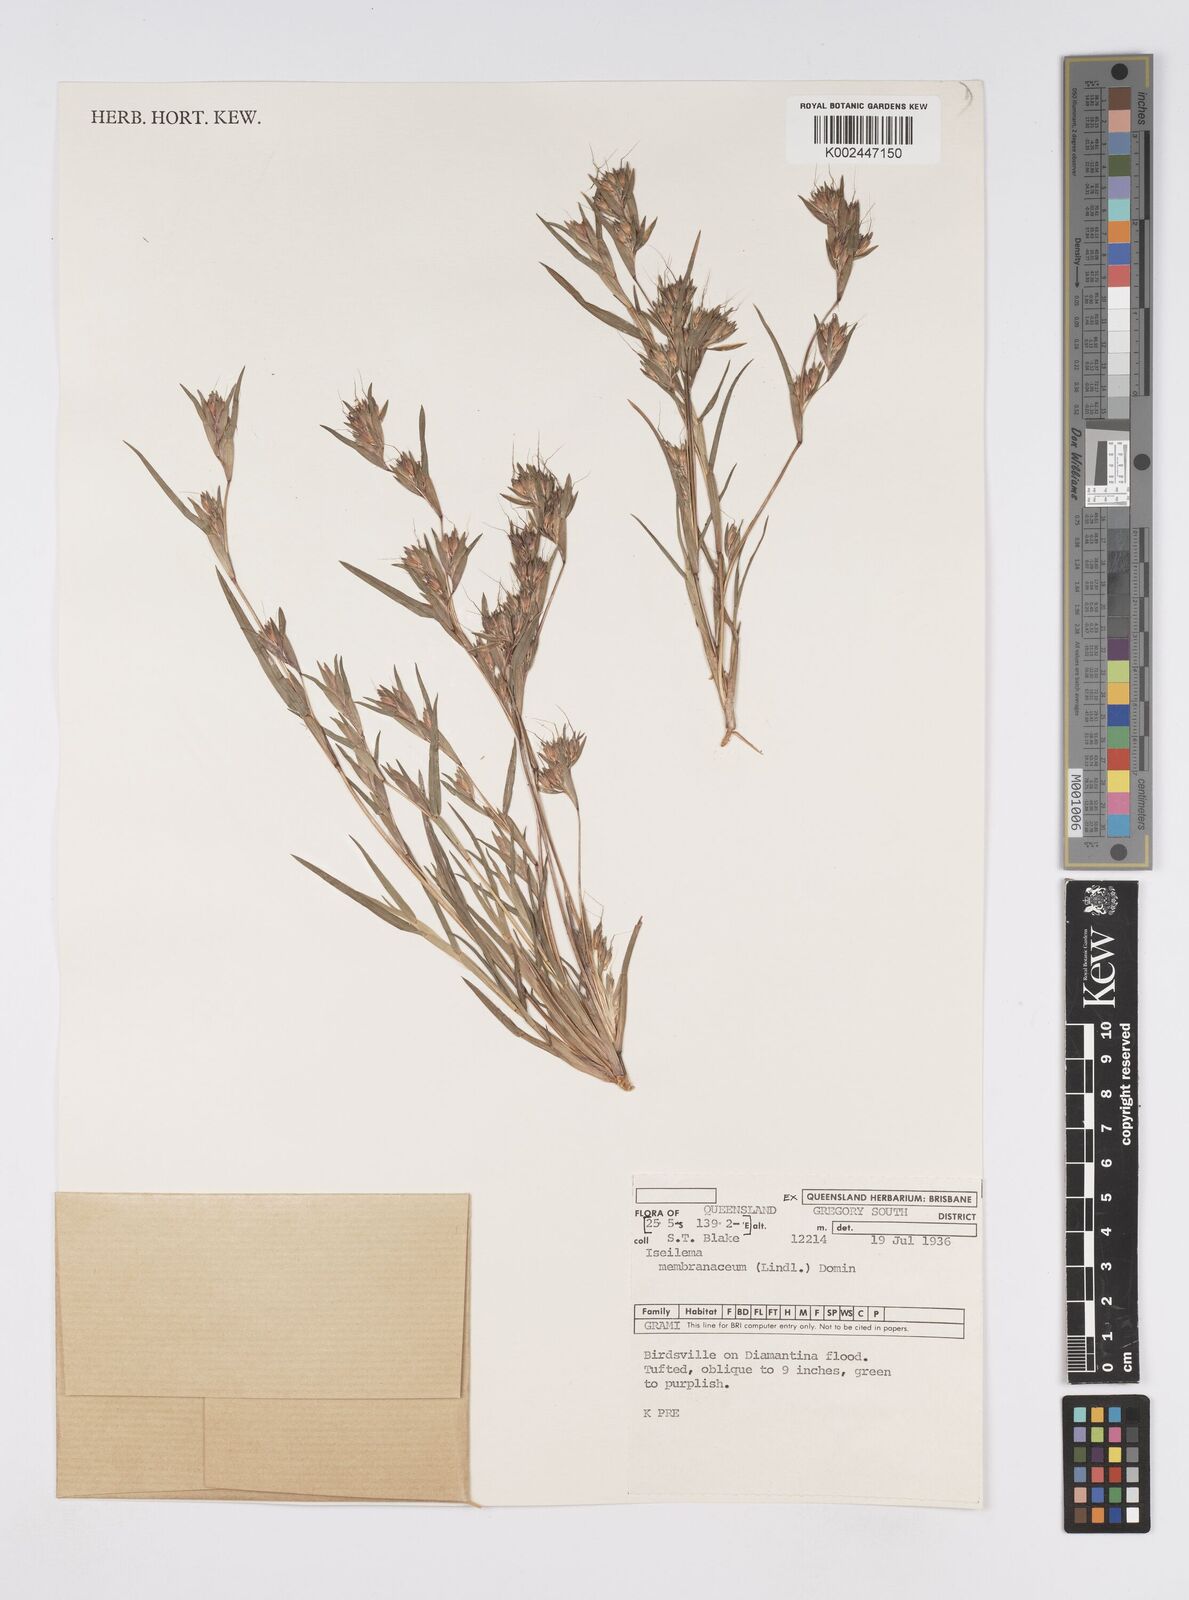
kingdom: Plantae
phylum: Tracheophyta
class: Liliopsida
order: Poales
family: Poaceae
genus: Iseilema
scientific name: Iseilema membranaceum
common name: Small flinders grass
